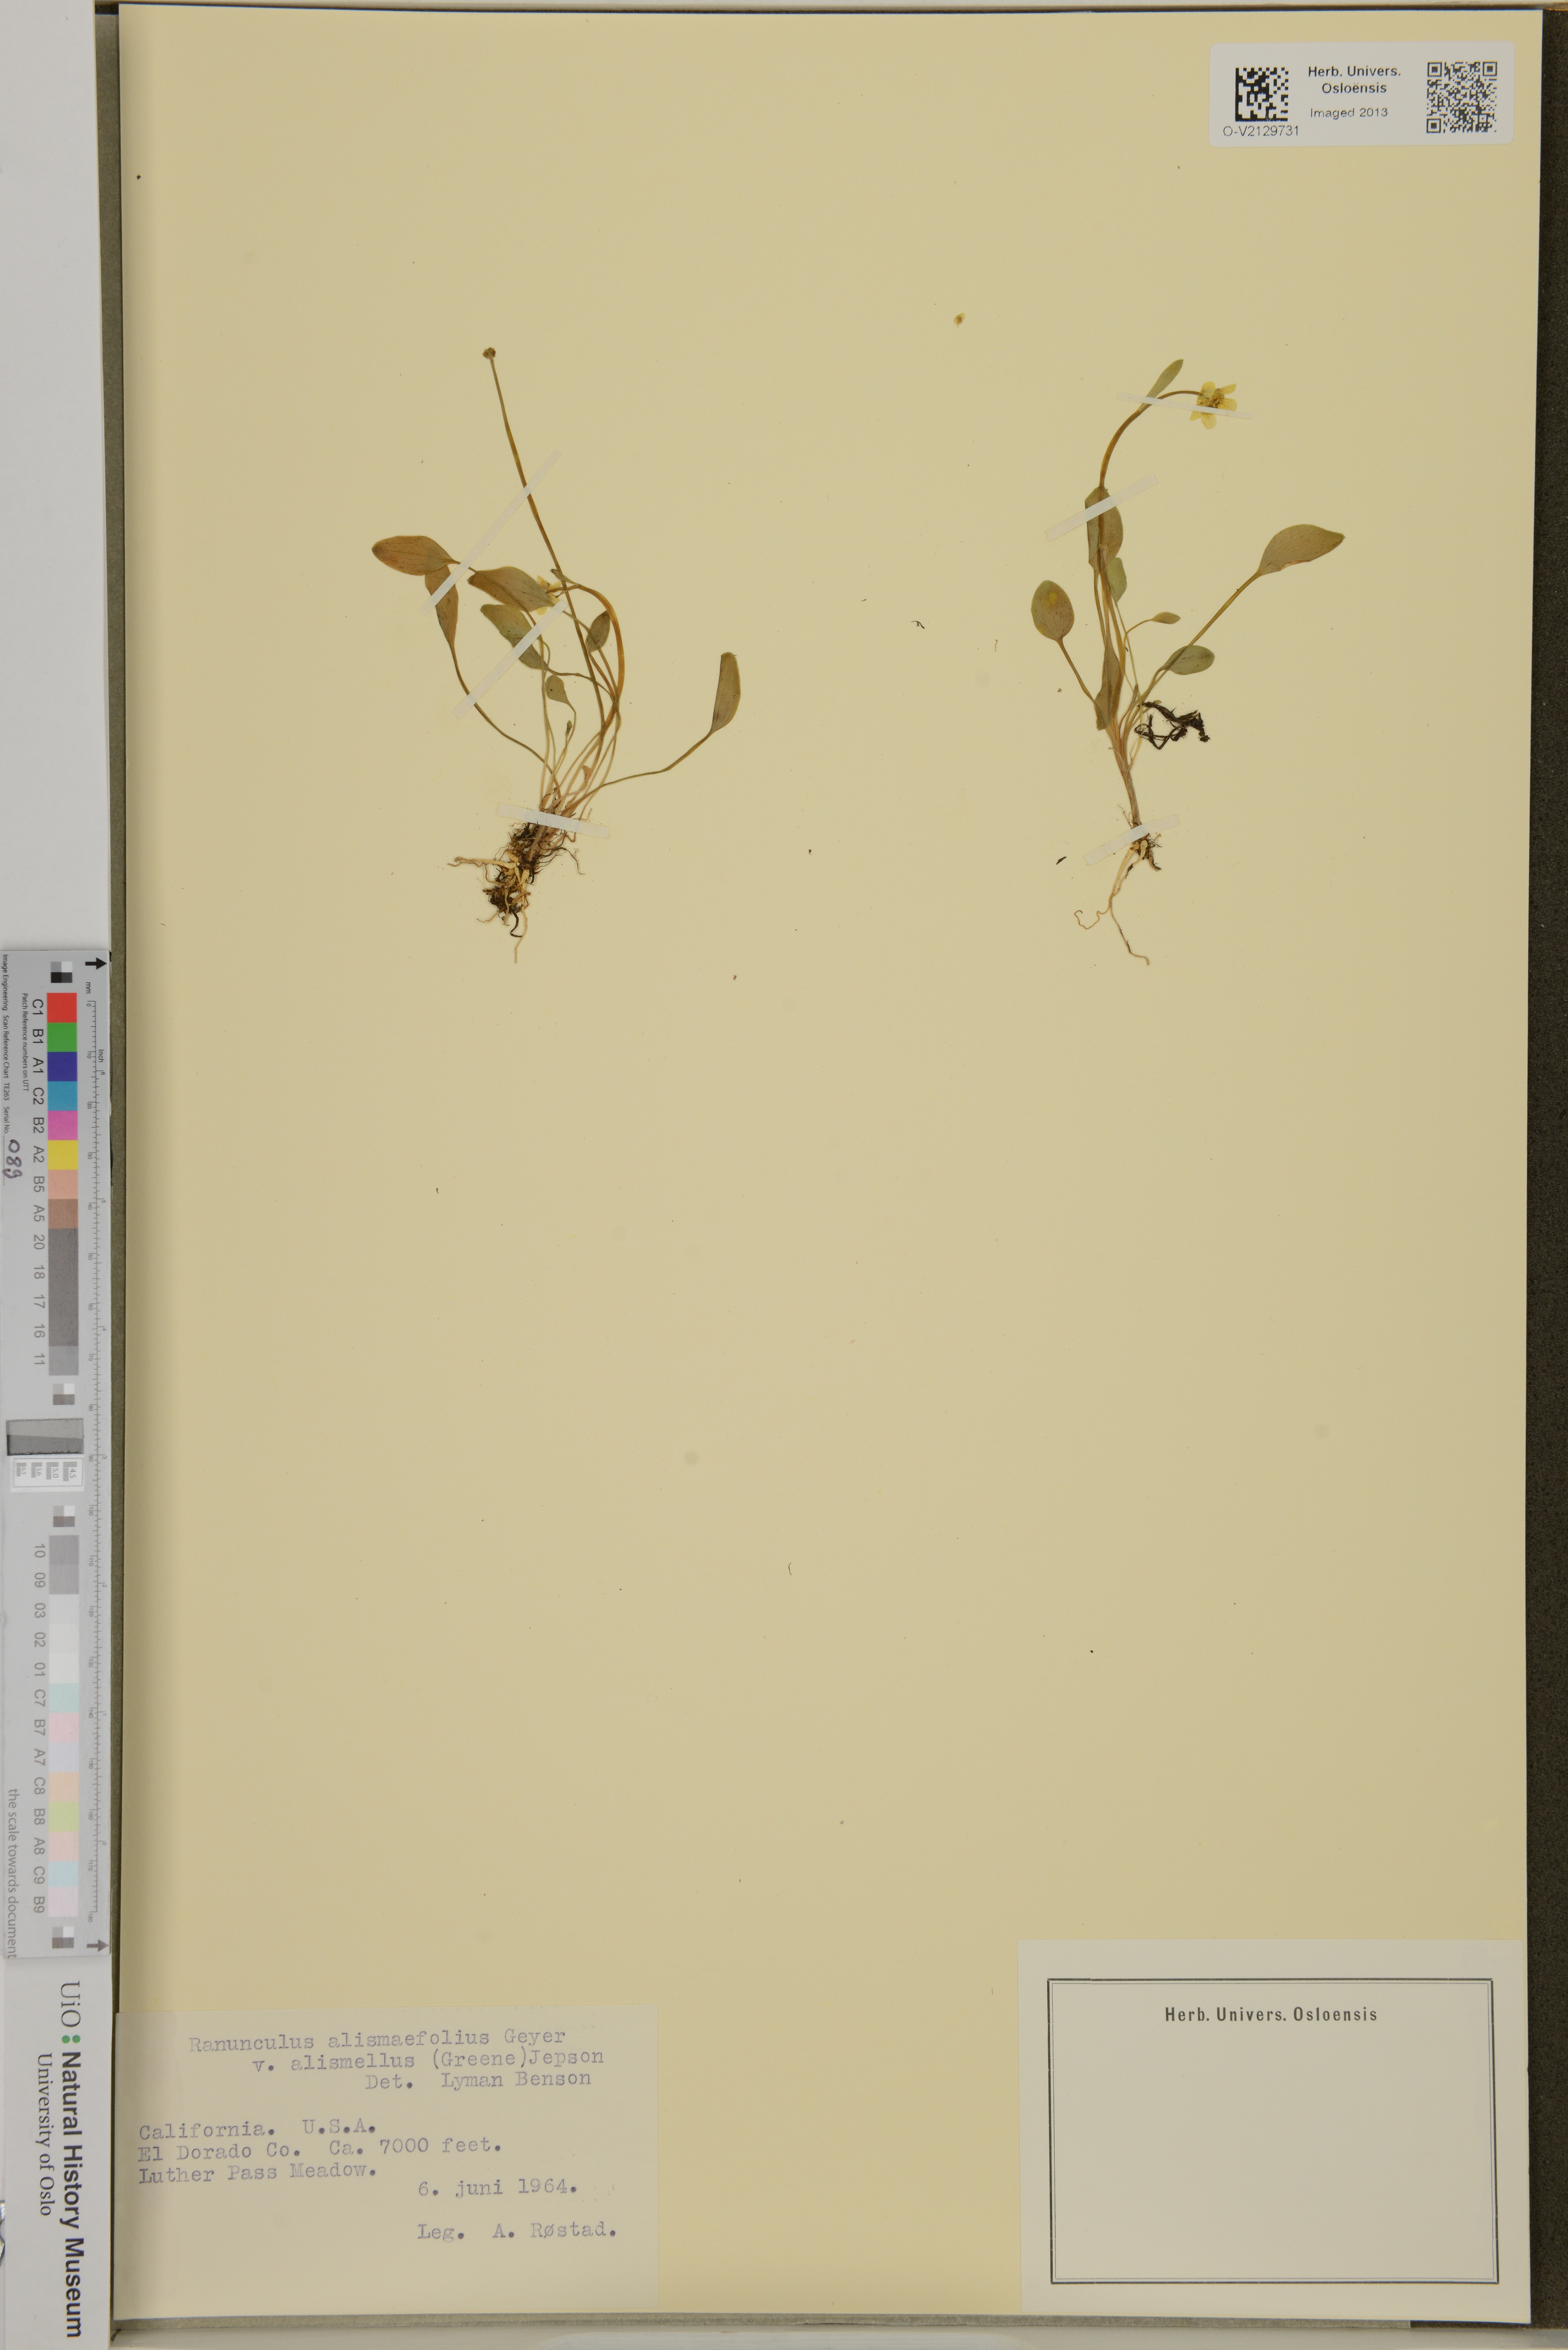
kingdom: Plantae
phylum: Tracheophyta
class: Magnoliopsida
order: Ranunculales
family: Ranunculaceae
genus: Ranunculus
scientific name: Ranunculus alismifolius
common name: Plantain-leaved buttercup
